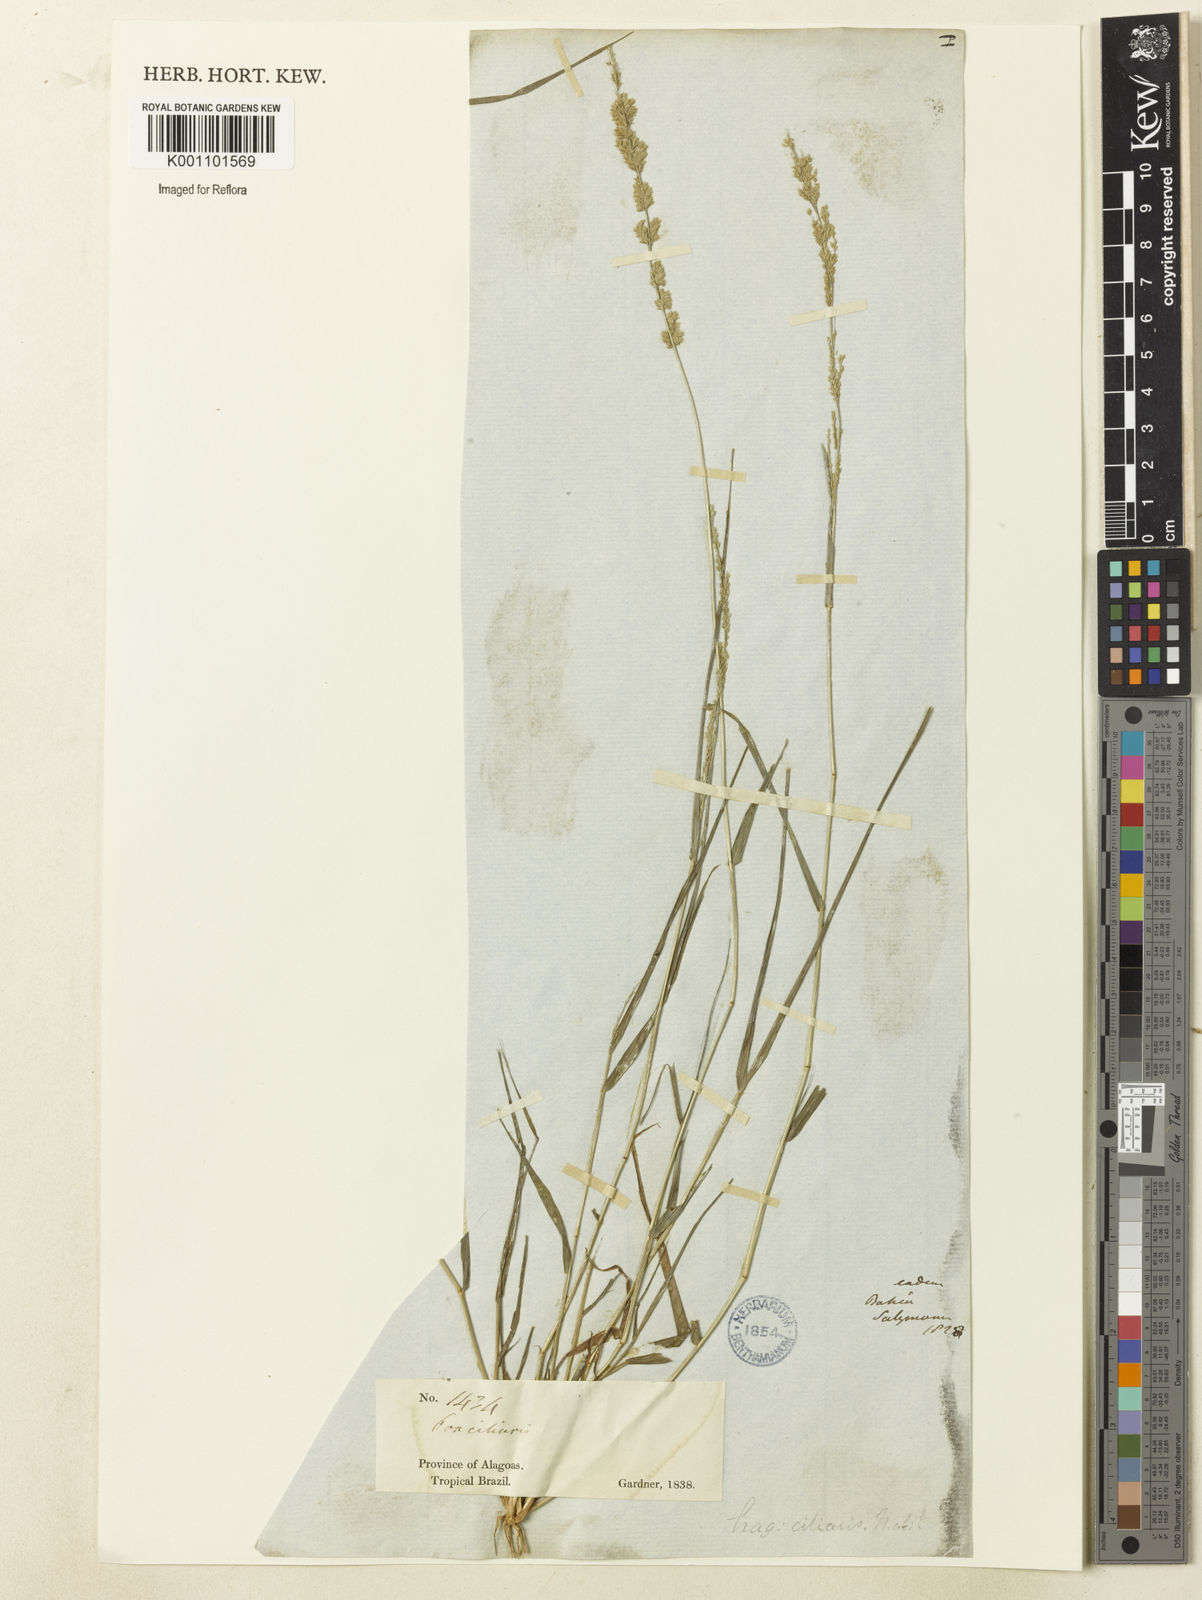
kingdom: Plantae
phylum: Tracheophyta
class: Liliopsida
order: Poales
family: Poaceae
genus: Eragrostis
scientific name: Eragrostis ciliaris
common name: Gophertail lovegrass
